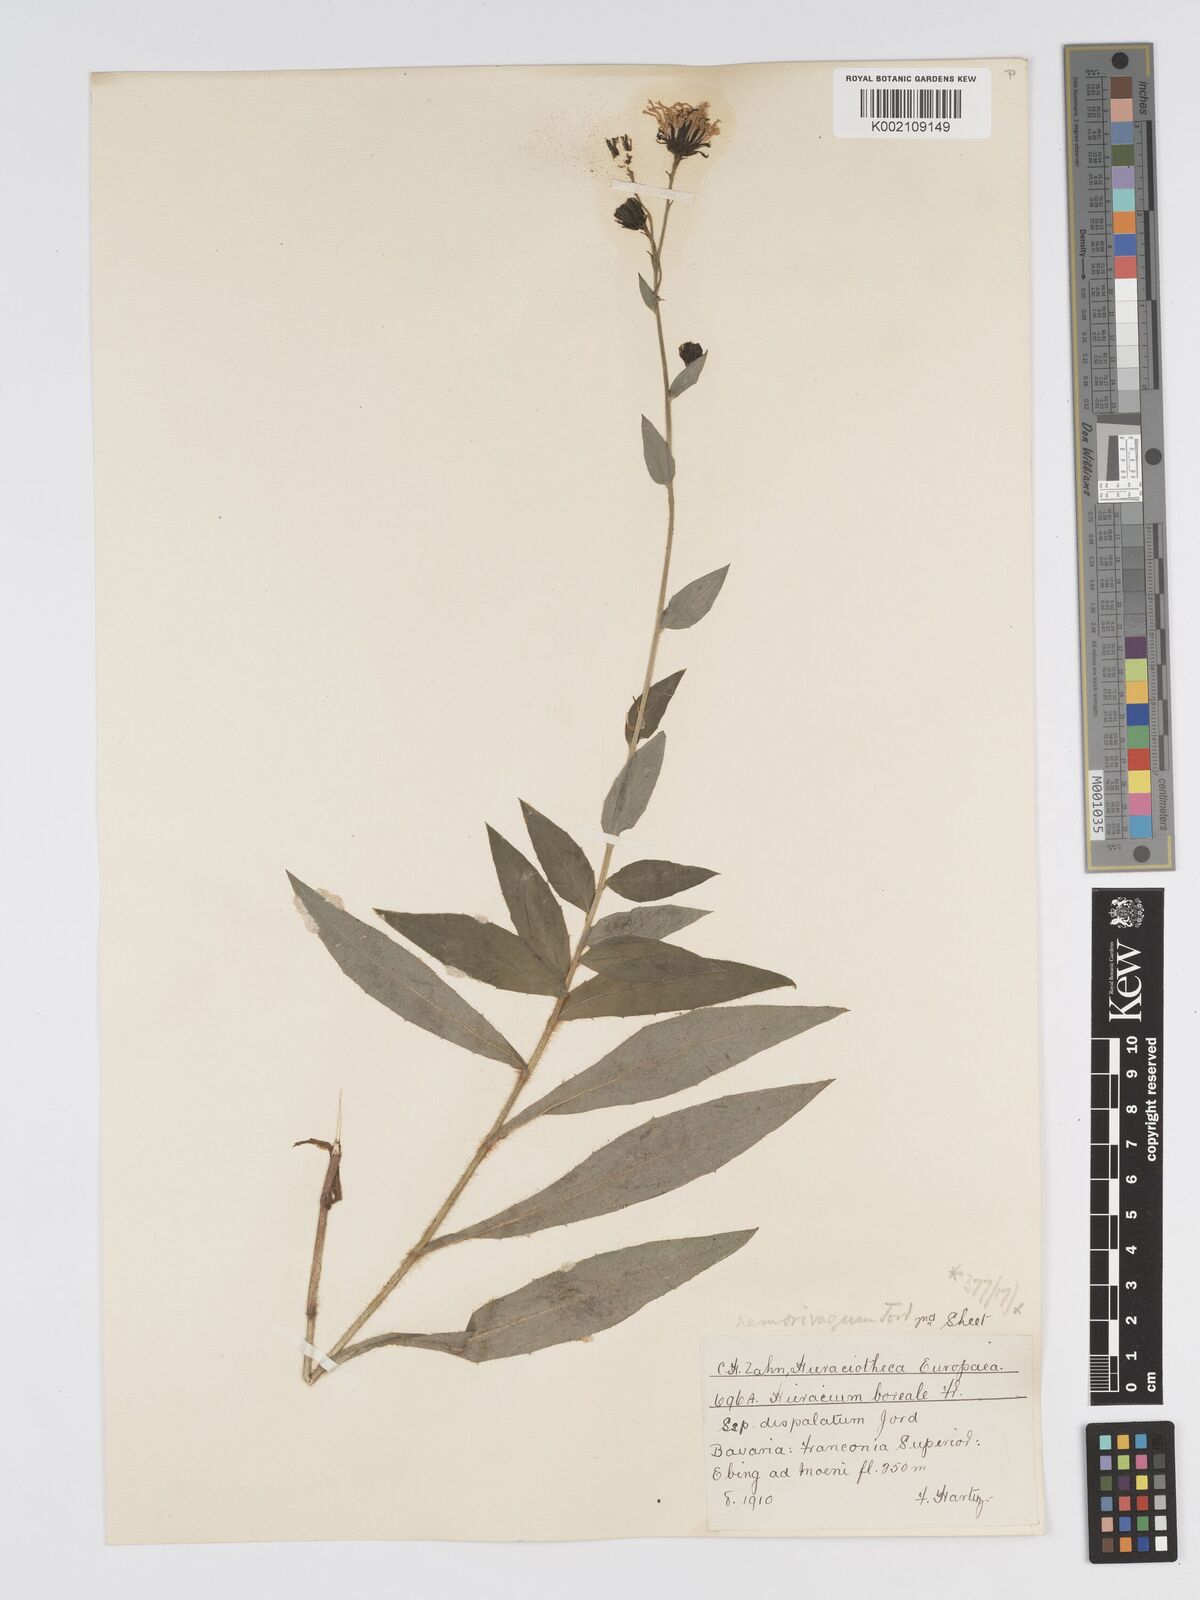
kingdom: Plantae
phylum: Tracheophyta
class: Magnoliopsida
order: Asterales
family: Asteraceae
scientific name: Asteraceae
